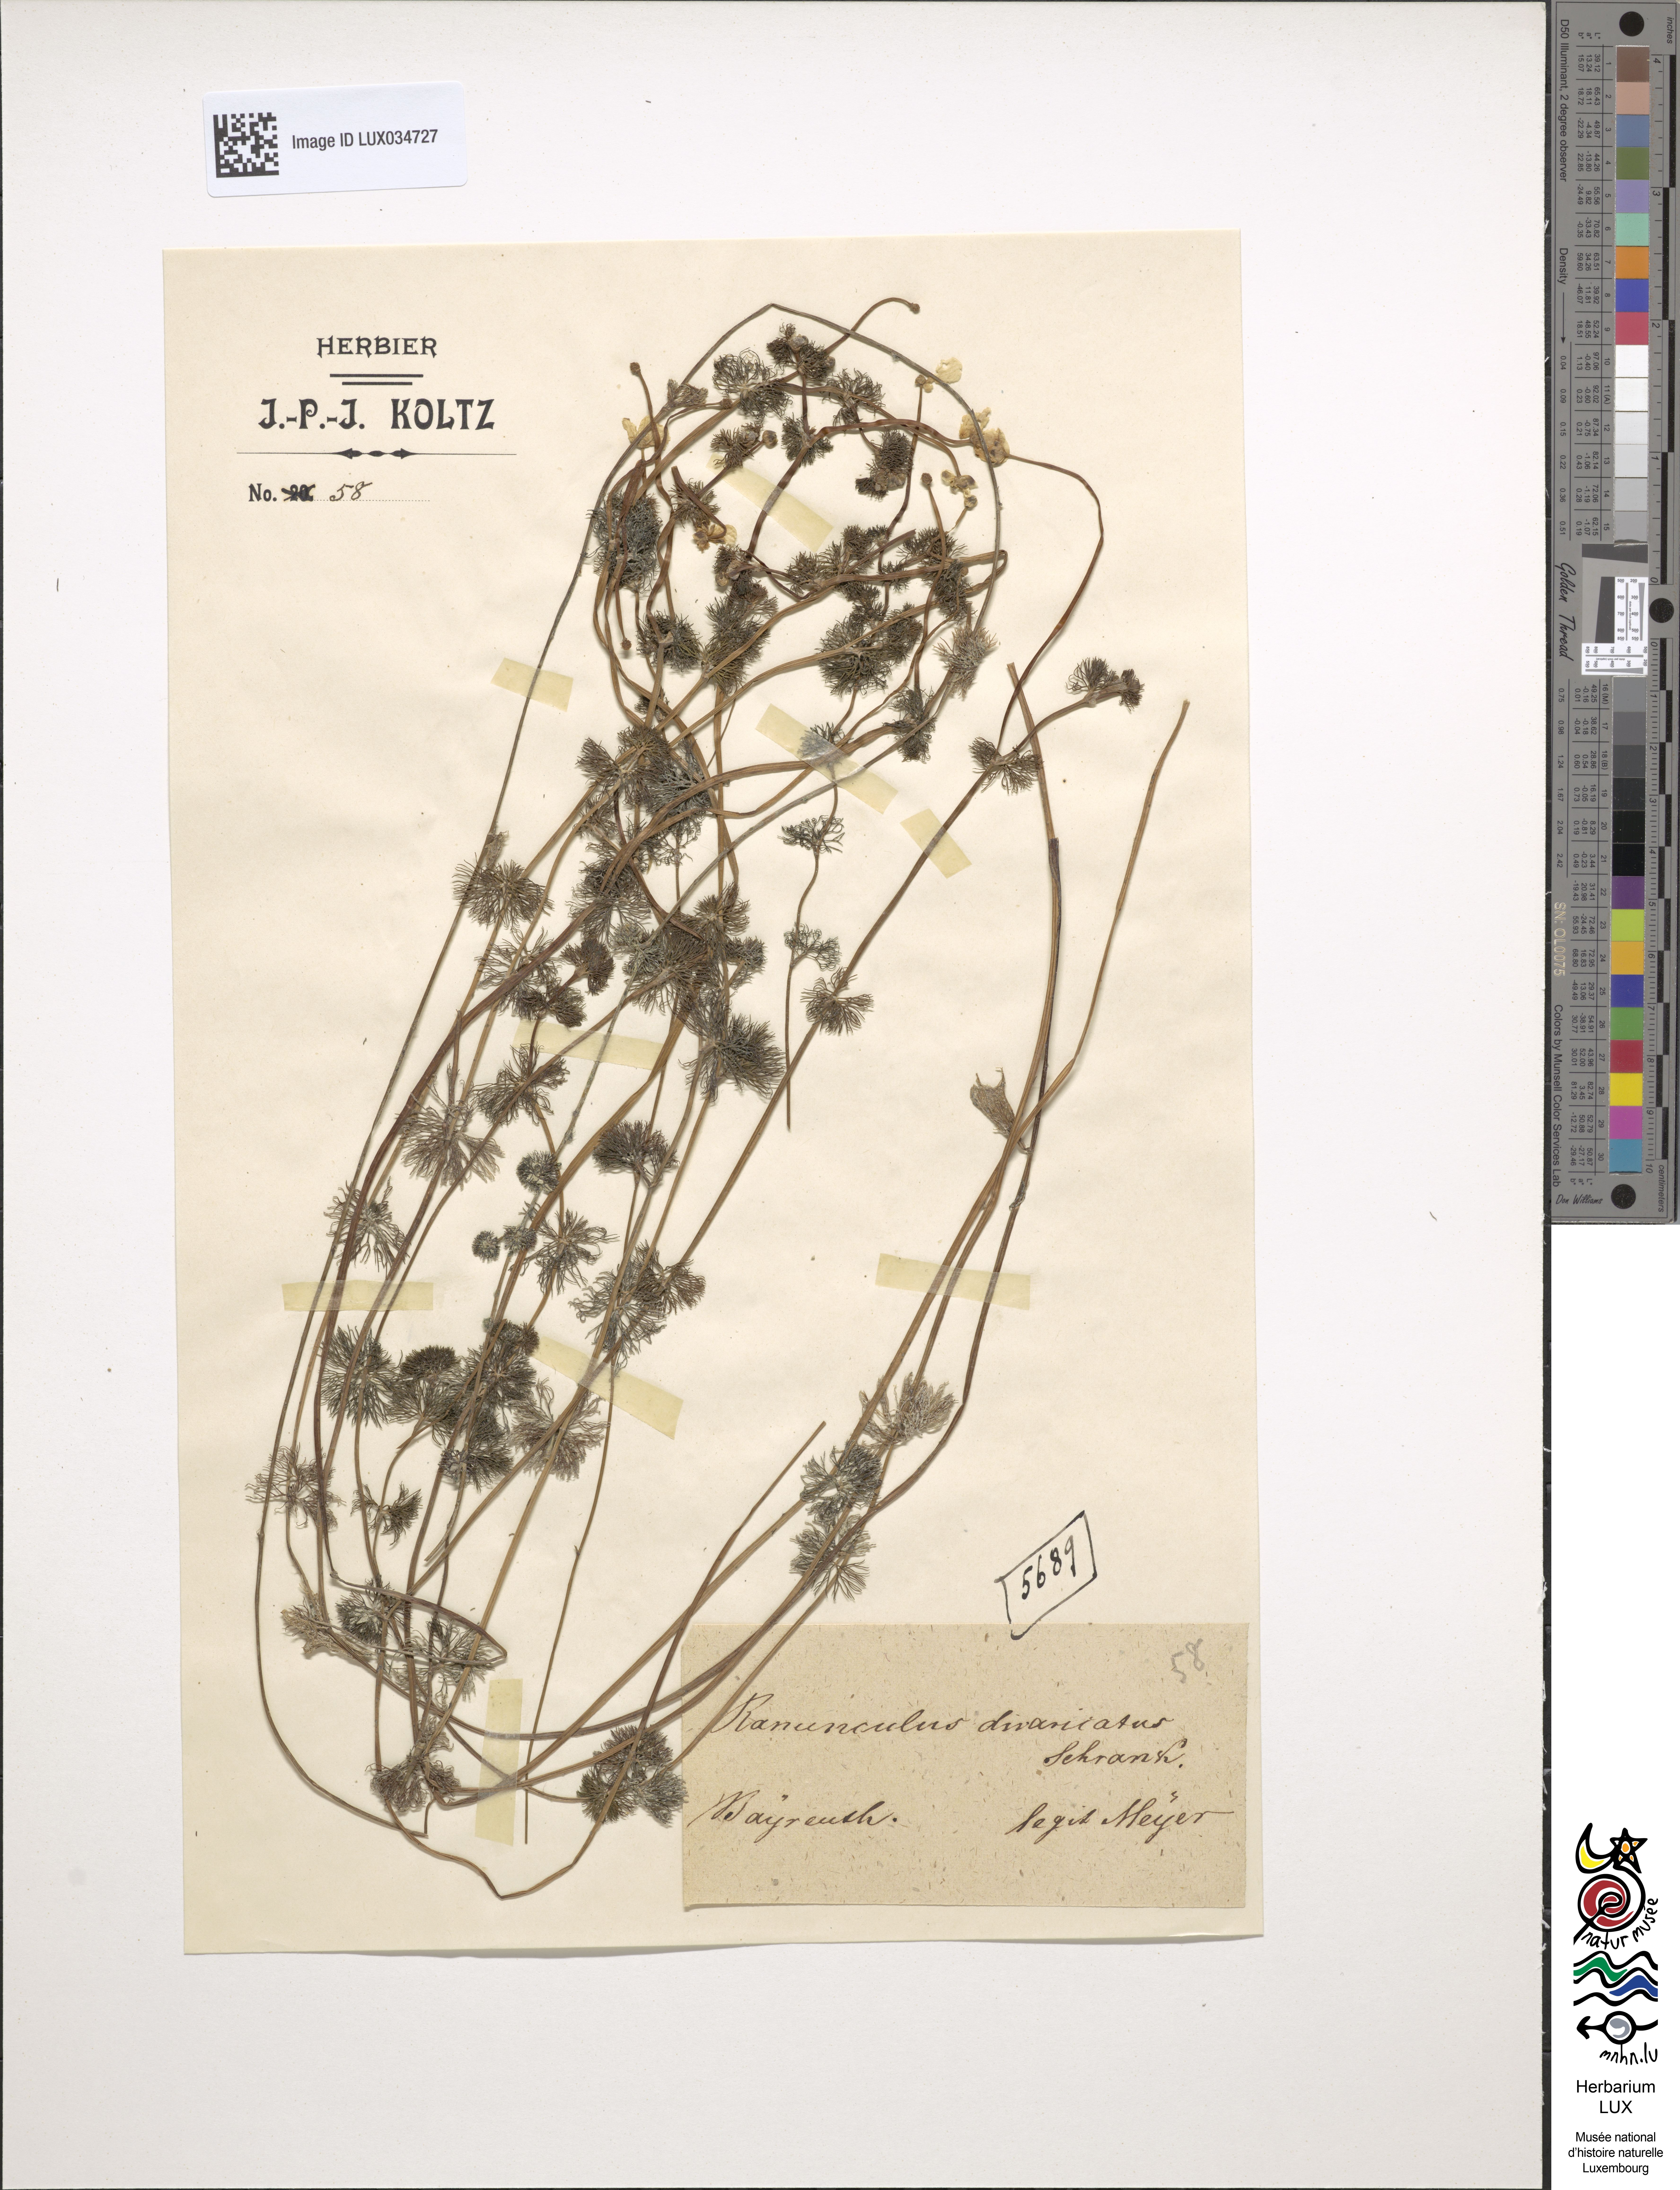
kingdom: Plantae
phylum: Tracheophyta
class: Magnoliopsida
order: Ranunculales
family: Ranunculaceae
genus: Ranunculus
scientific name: Ranunculus trichophyllus
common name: Thread-leaved water-crowfoot
